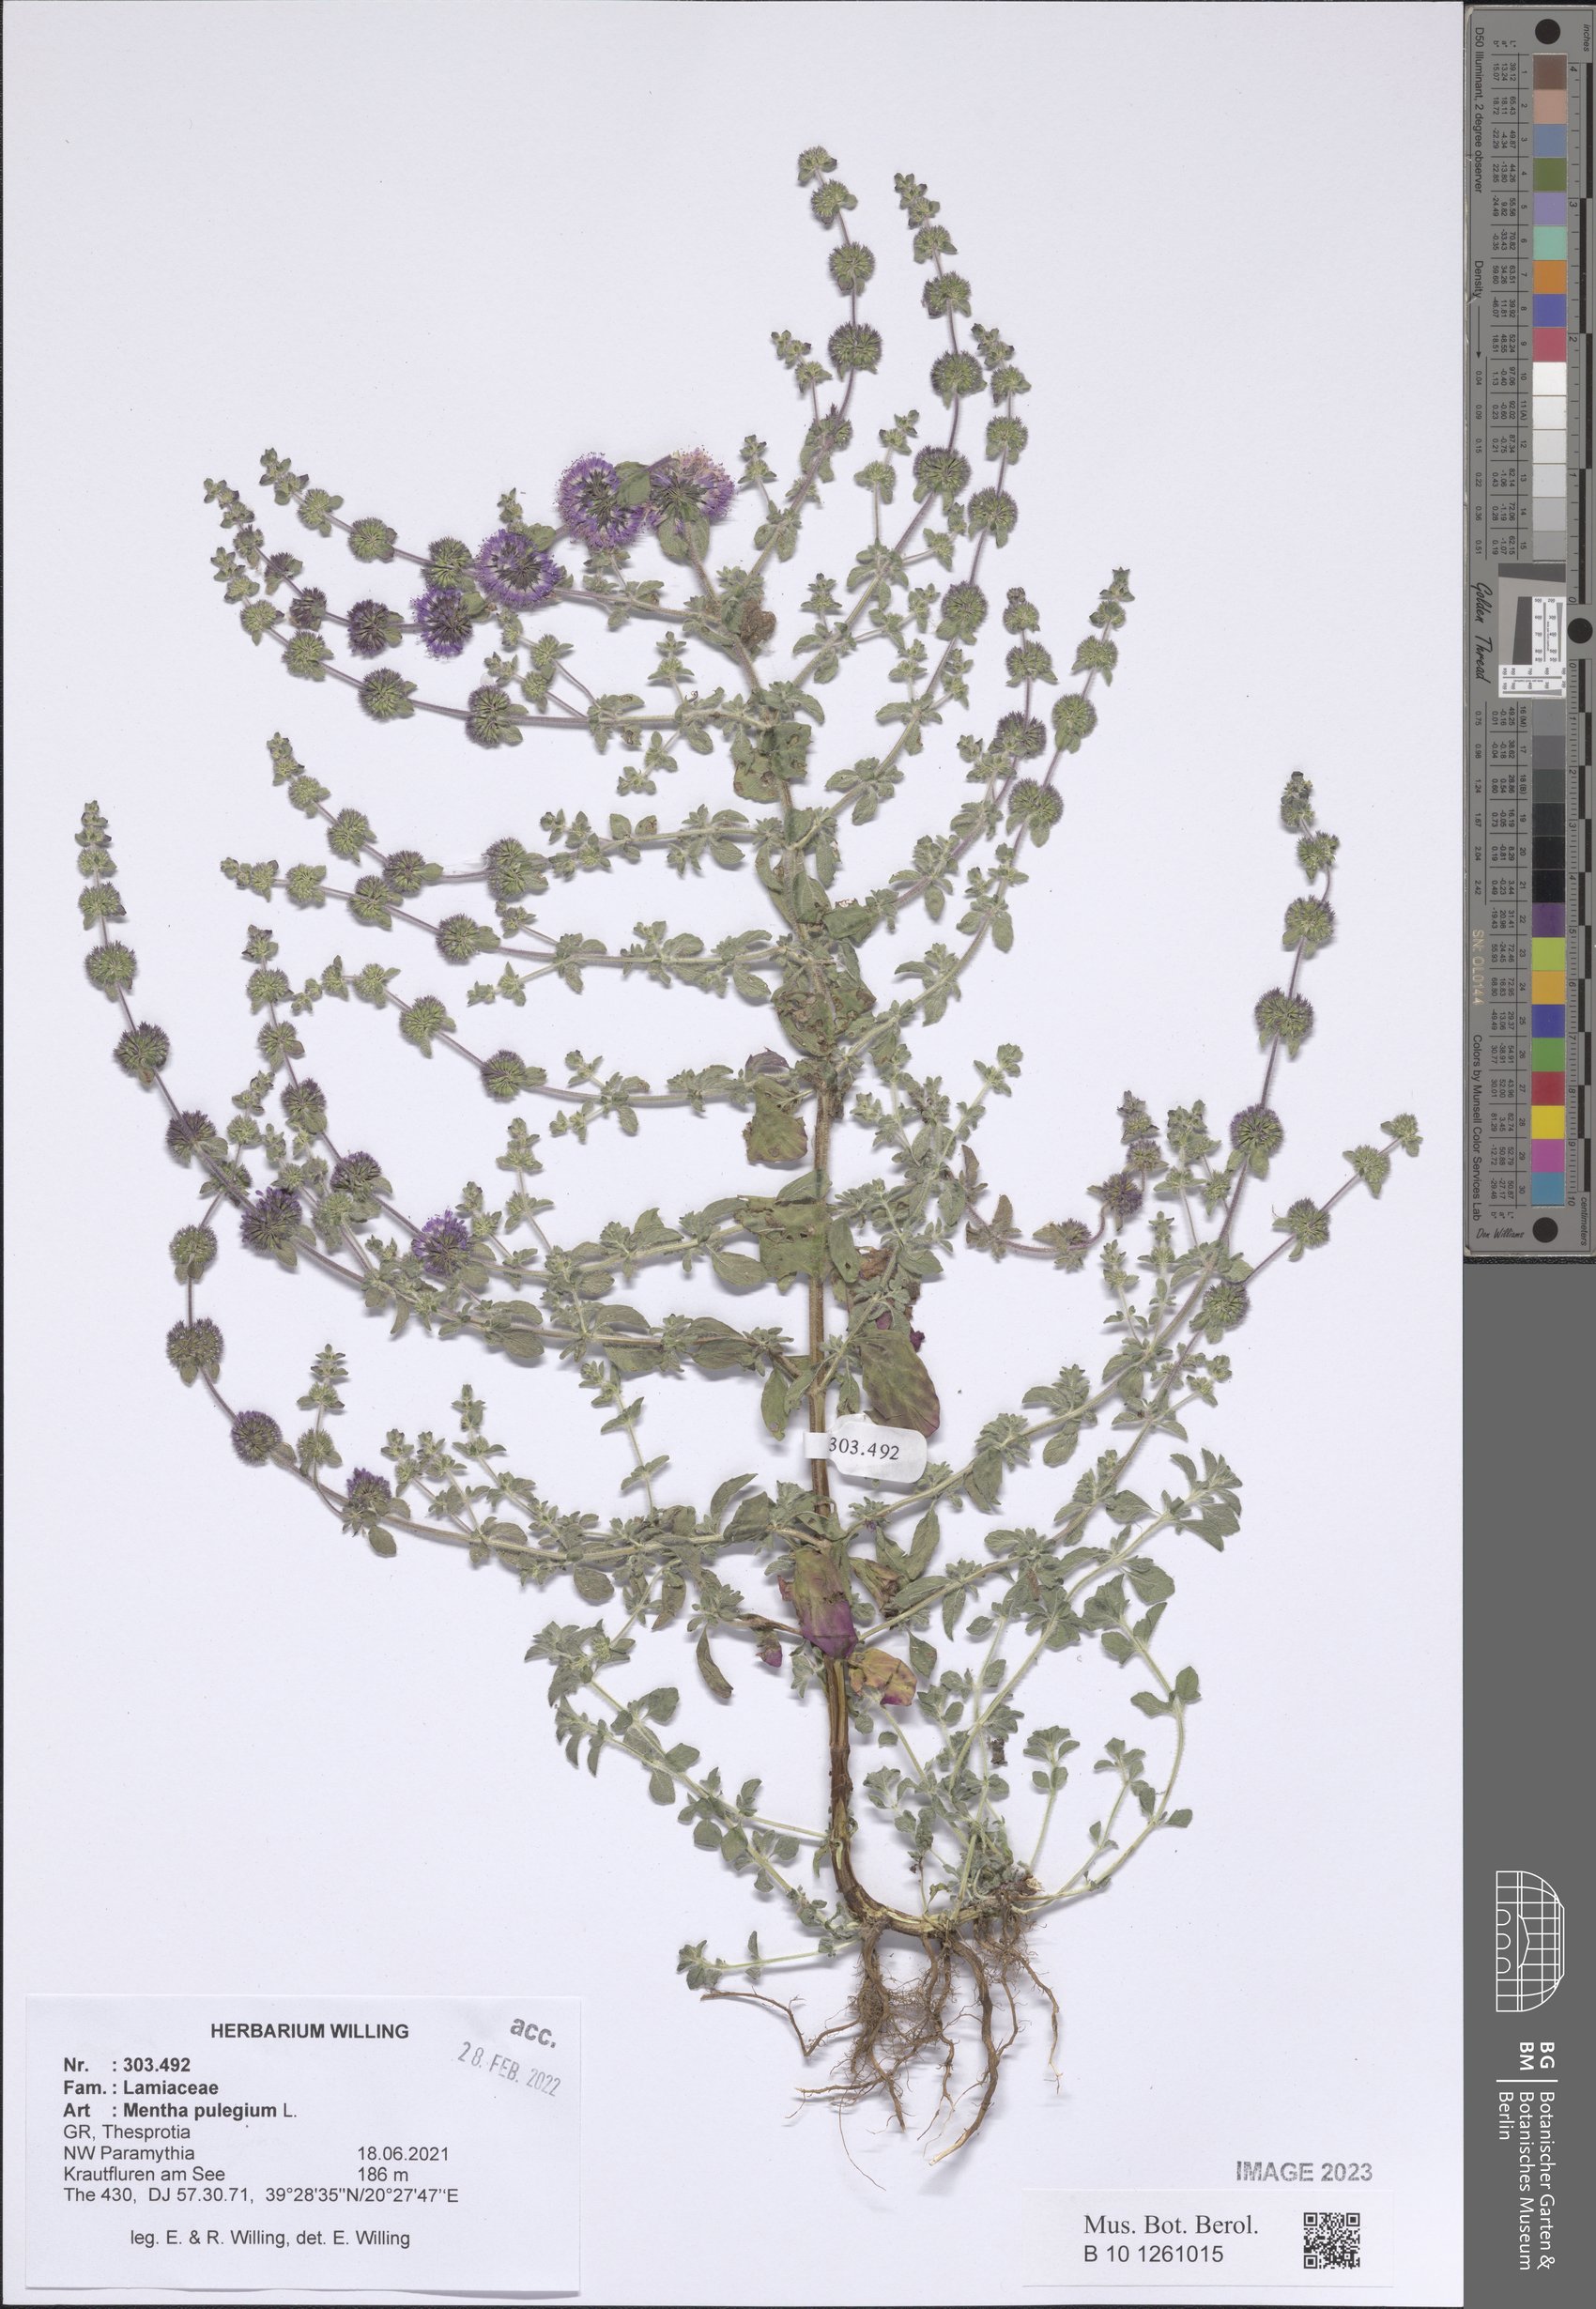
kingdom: Plantae
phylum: Tracheophyta
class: Magnoliopsida
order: Lamiales
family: Lamiaceae
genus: Mentha
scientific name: Mentha pulegium
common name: Pennyroyal
